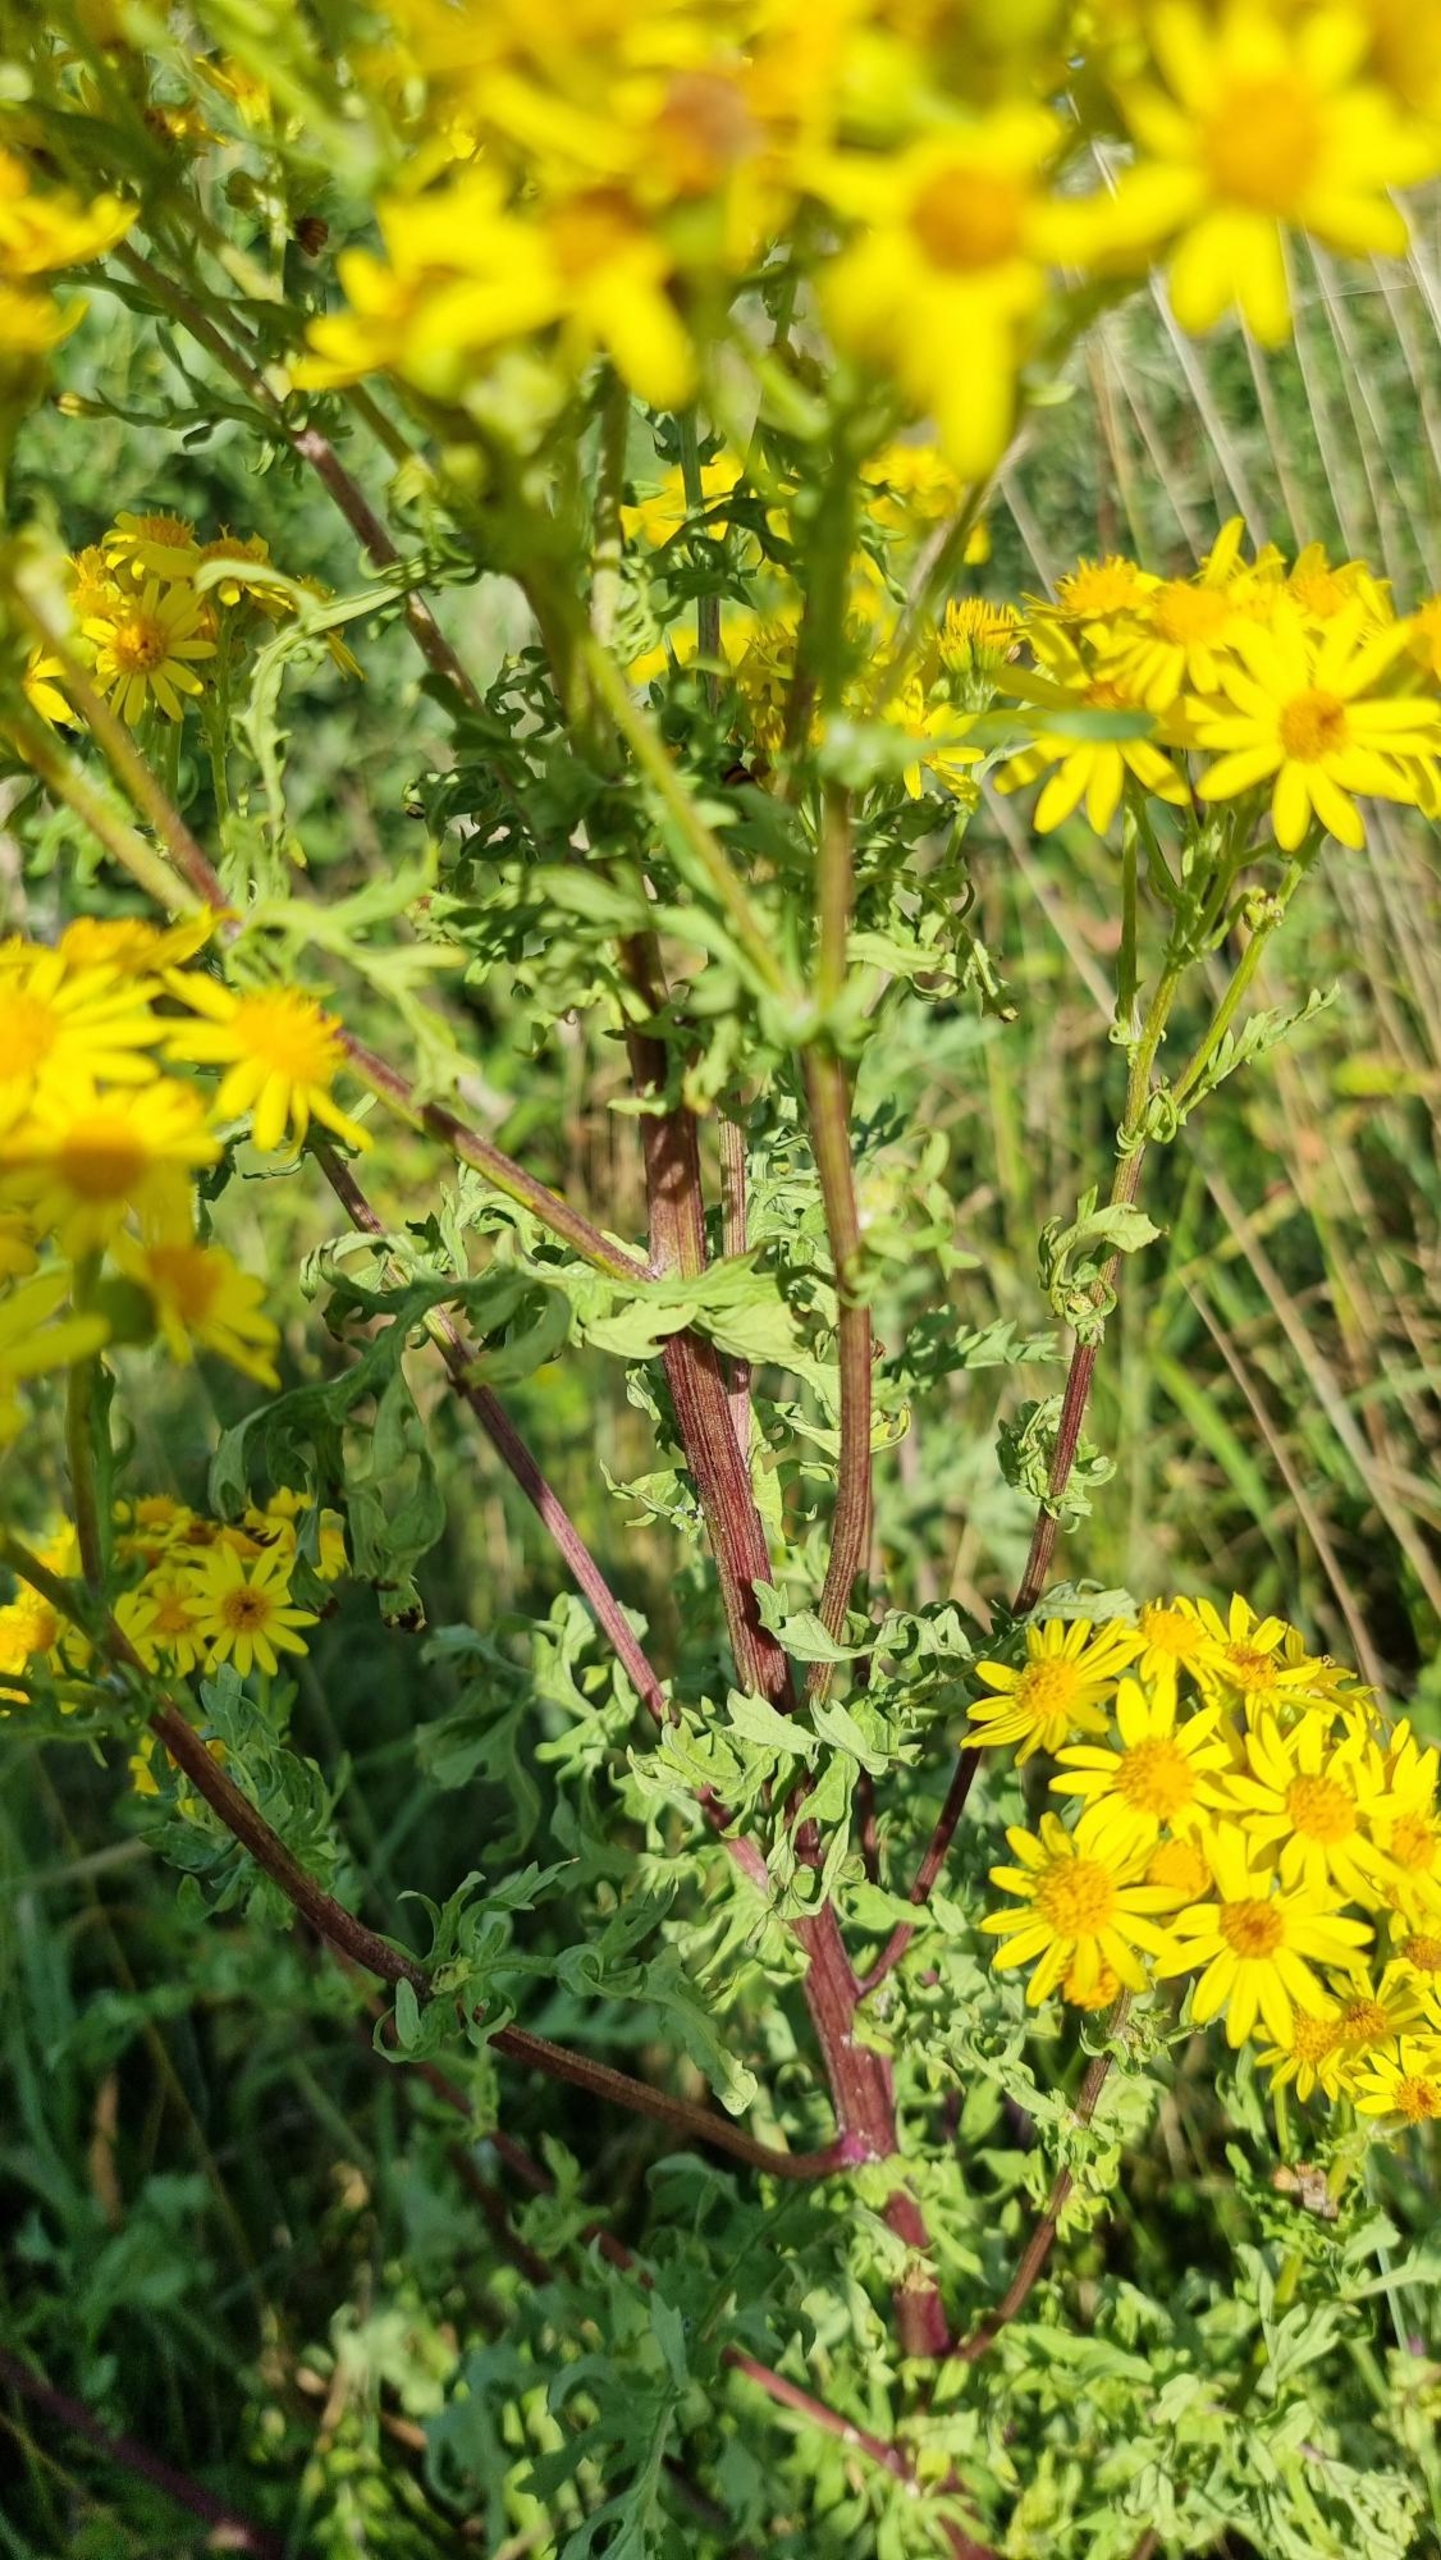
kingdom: Plantae
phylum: Tracheophyta
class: Magnoliopsida
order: Asterales
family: Asteraceae
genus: Jacobaea
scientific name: Jacobaea vulgaris
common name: Eng-brandbæger
